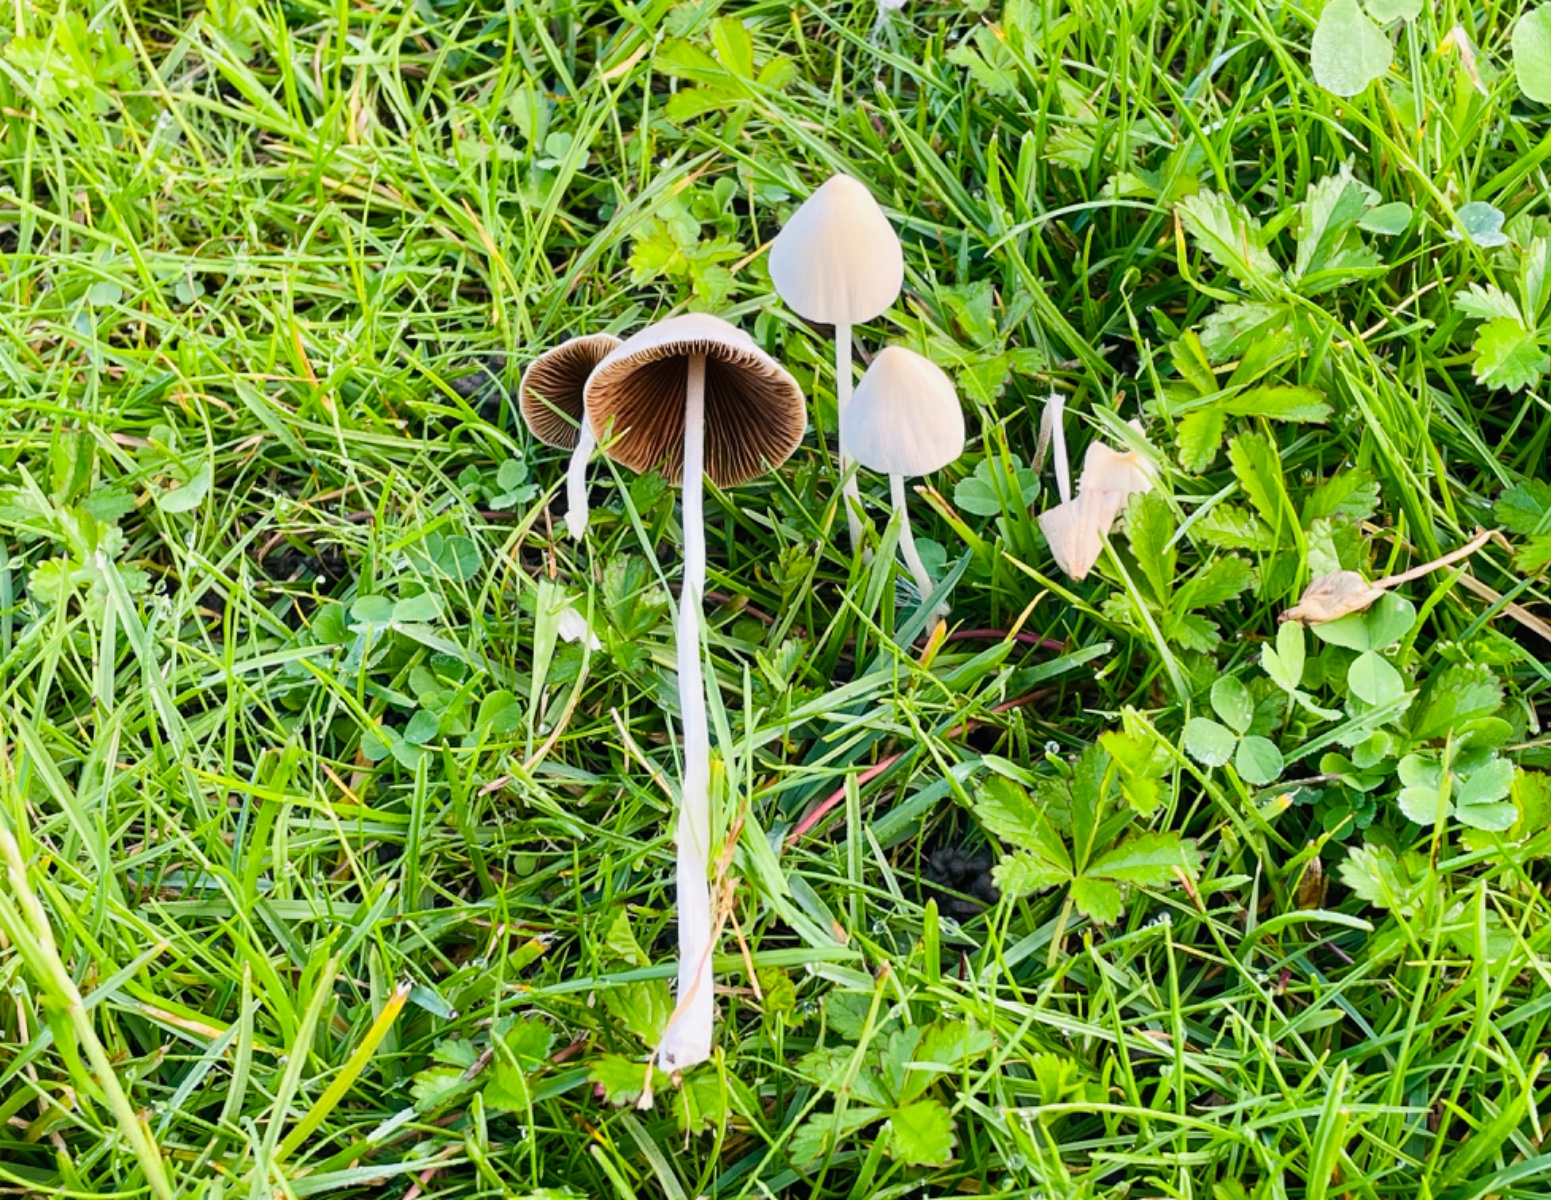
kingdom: Fungi
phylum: Basidiomycota
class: Agaricomycetes
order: Agaricales
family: Bolbitiaceae
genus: Conocybe
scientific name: Conocybe apala
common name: mælkehvid keglehat
